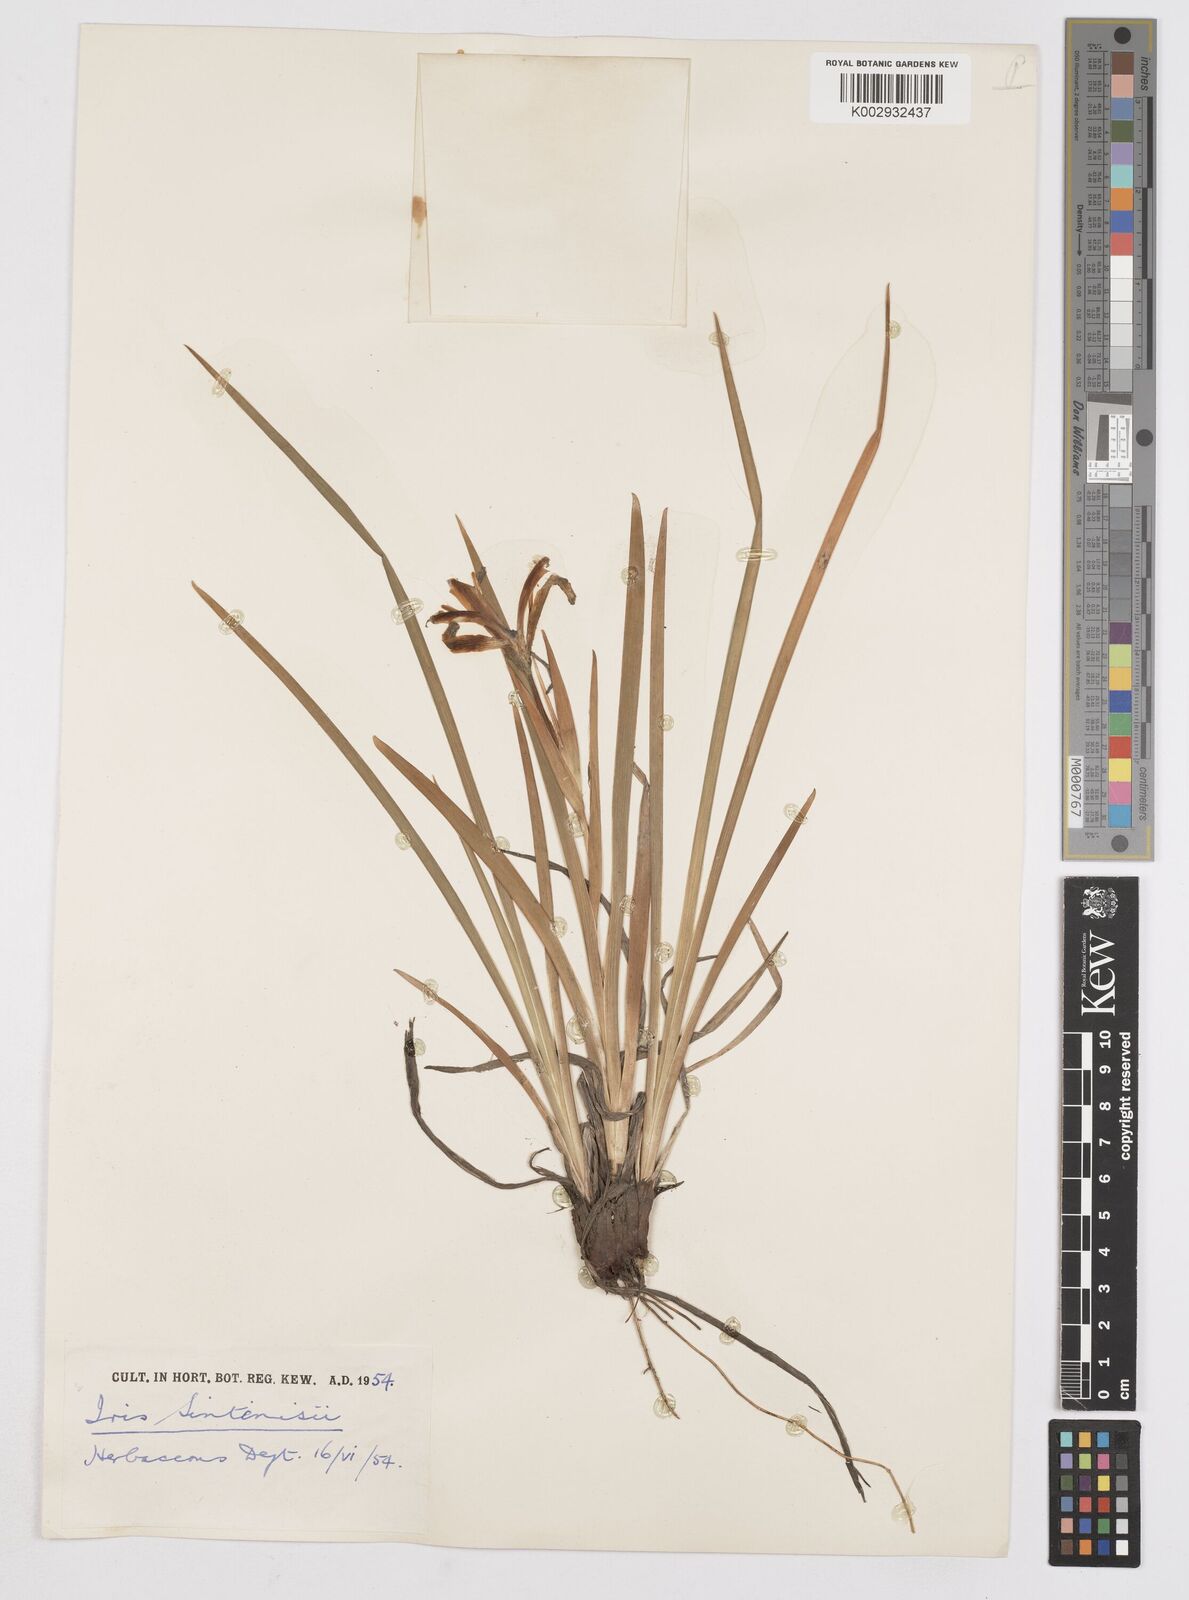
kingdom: Plantae
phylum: Tracheophyta
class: Liliopsida
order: Asparagales
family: Iridaceae
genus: Iris
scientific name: Iris sintenisii
